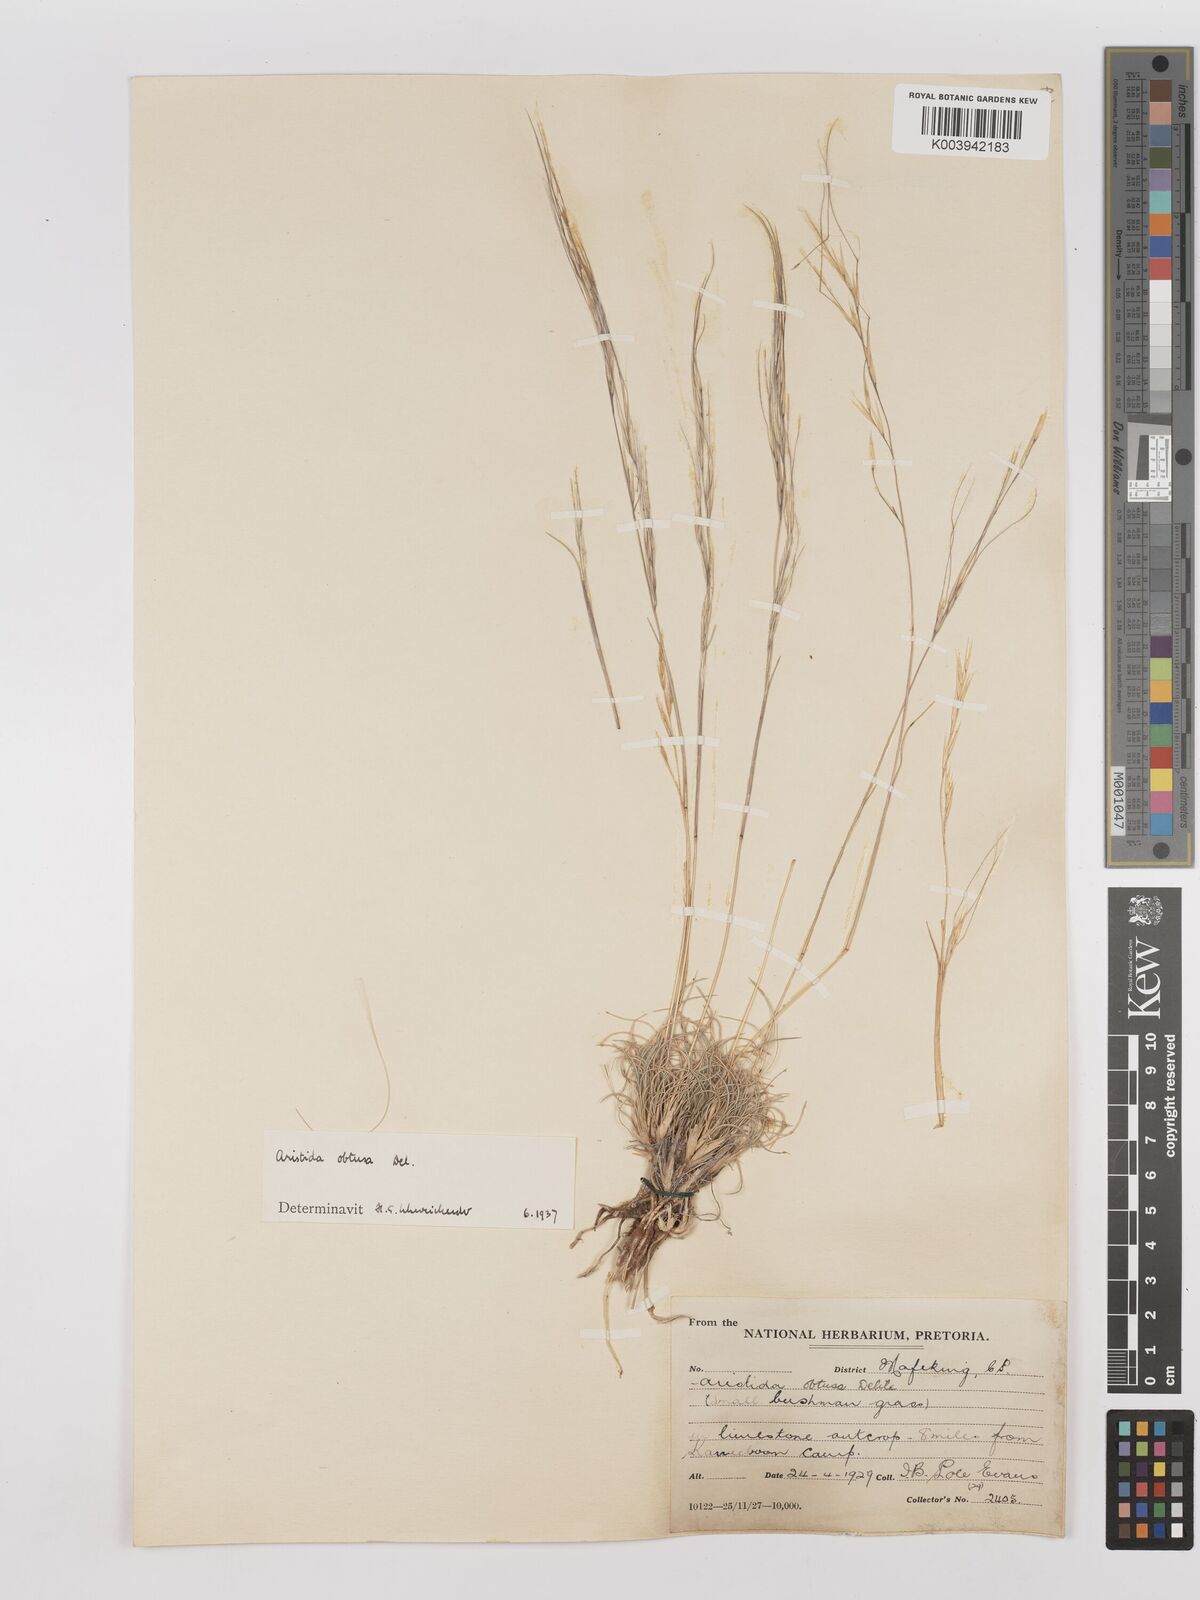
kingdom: Plantae
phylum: Tracheophyta
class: Liliopsida
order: Poales
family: Poaceae
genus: Stipagrostis
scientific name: Stipagrostis obtusa
